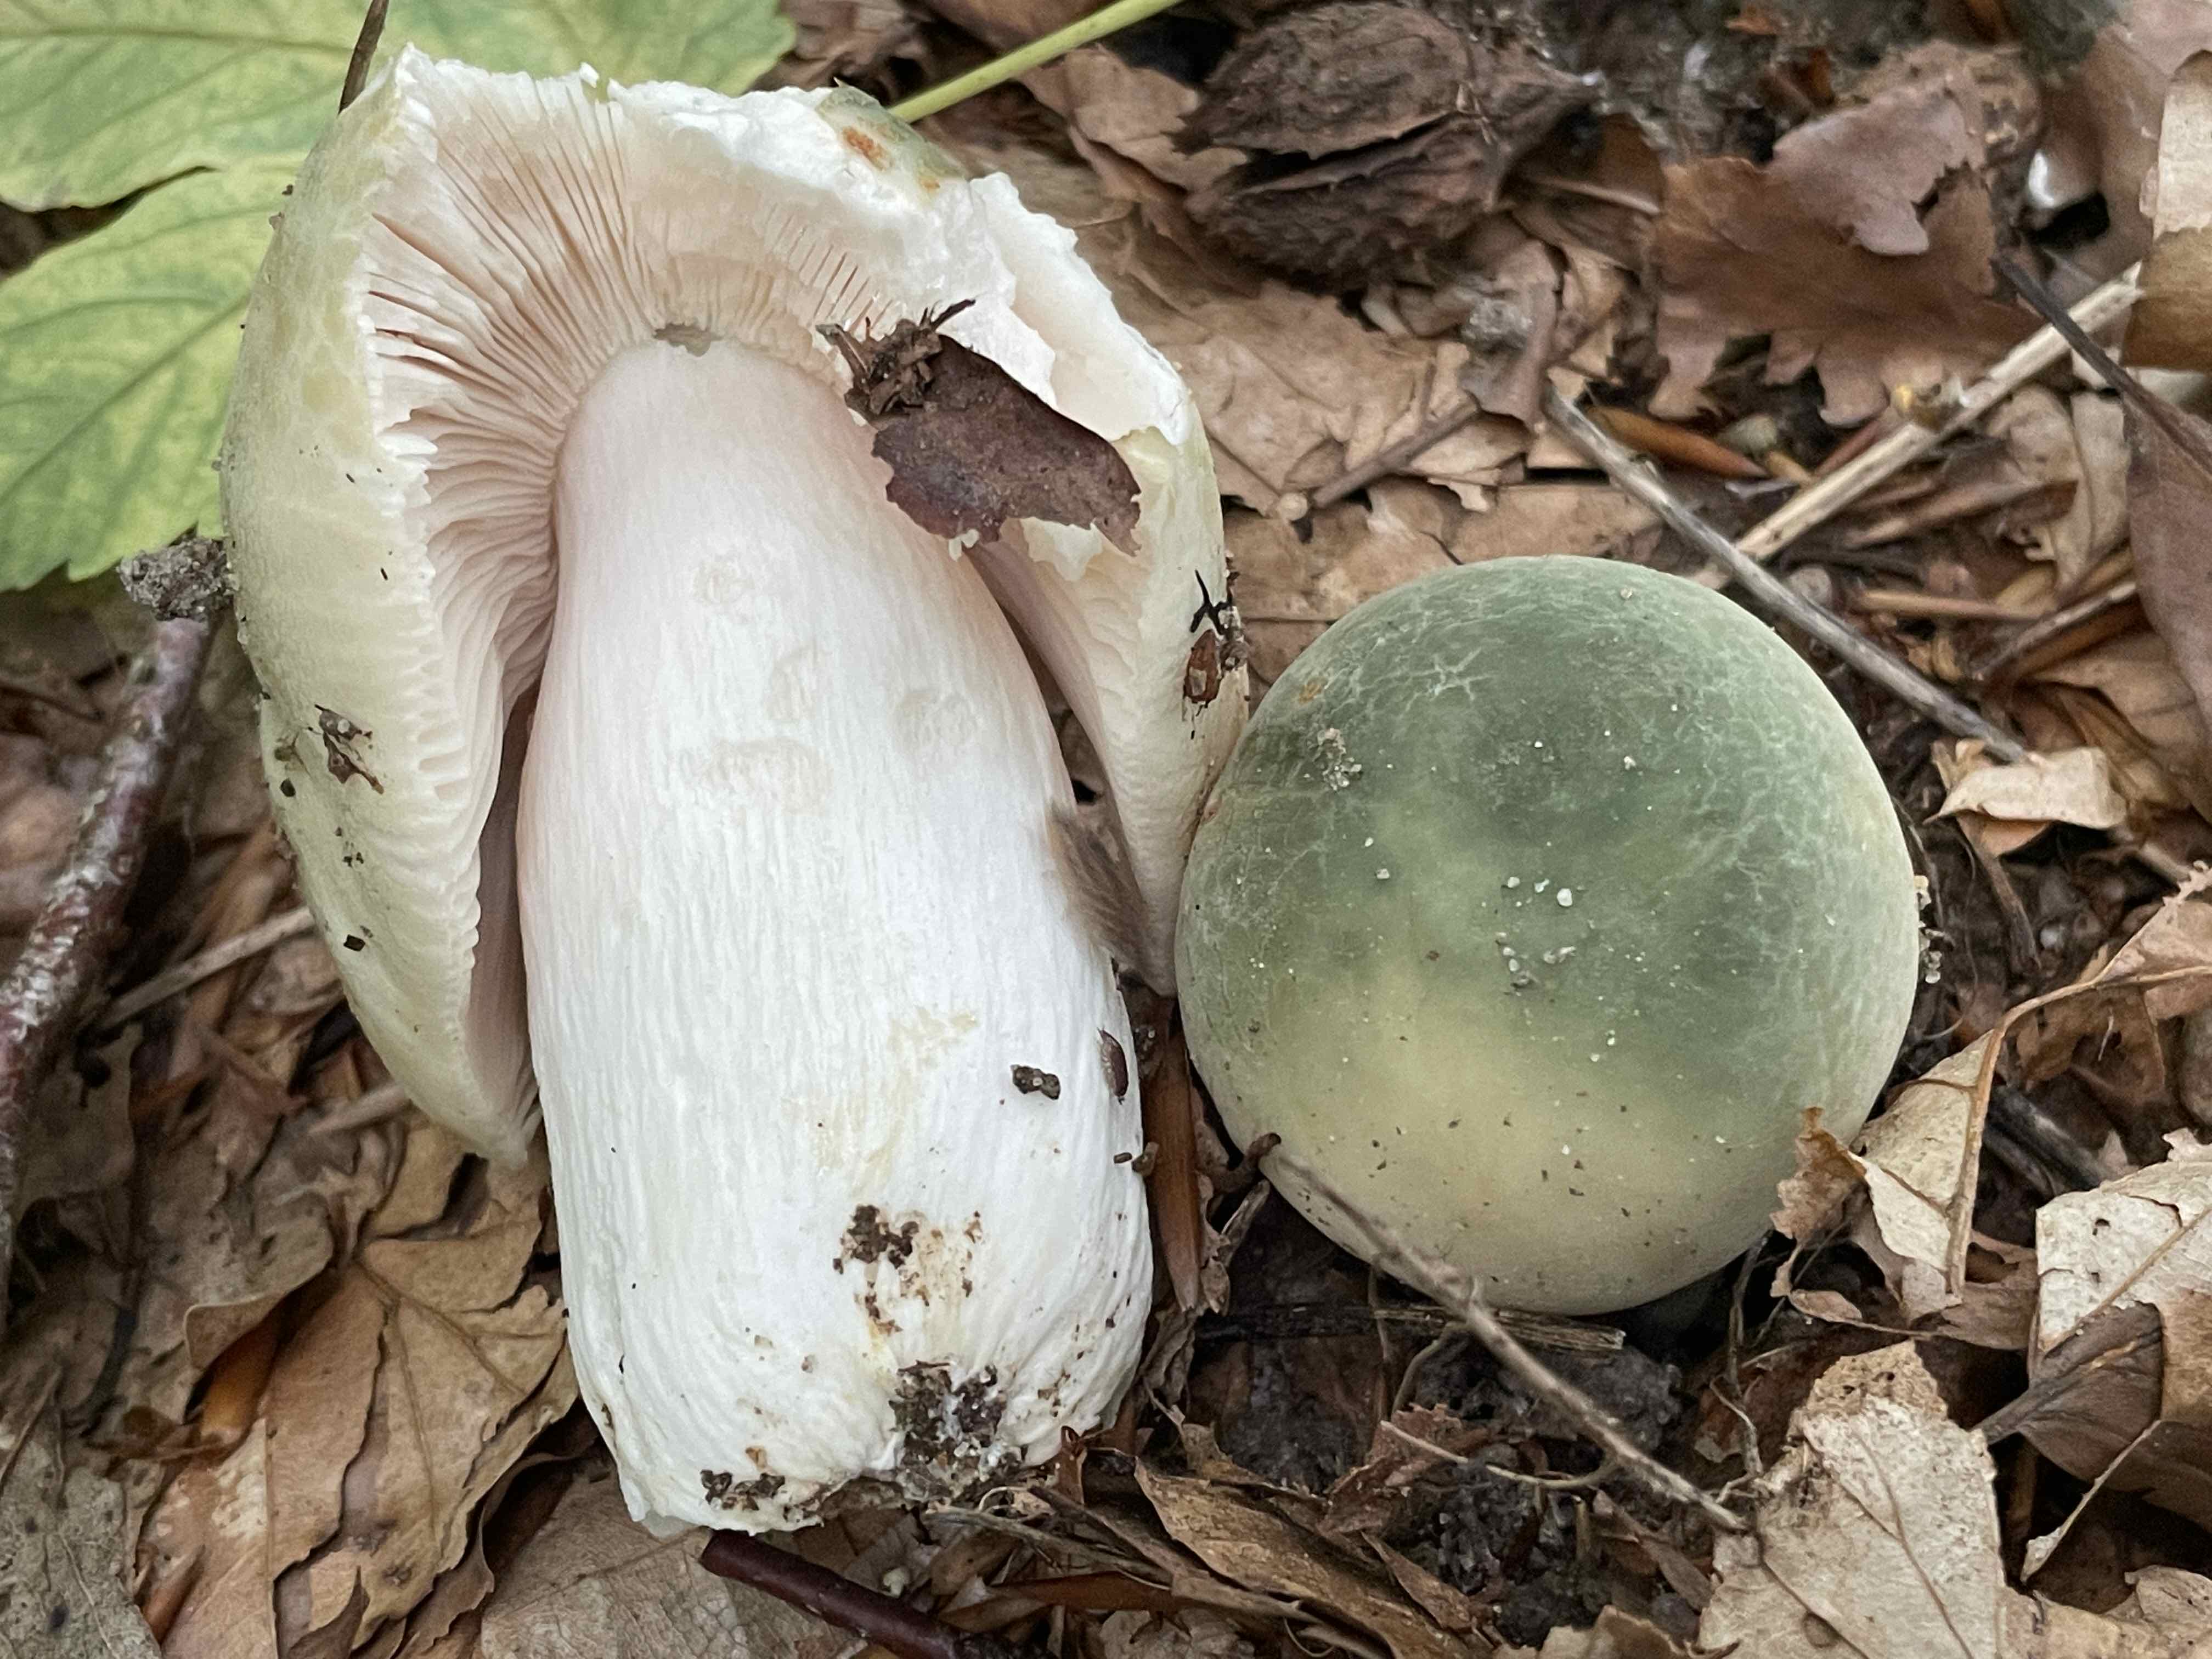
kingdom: Fungi
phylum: Basidiomycota
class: Agaricomycetes
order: Russulales
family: Russulaceae
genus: Russula
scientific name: Russula virescens
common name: spanskgrøn skørhat
